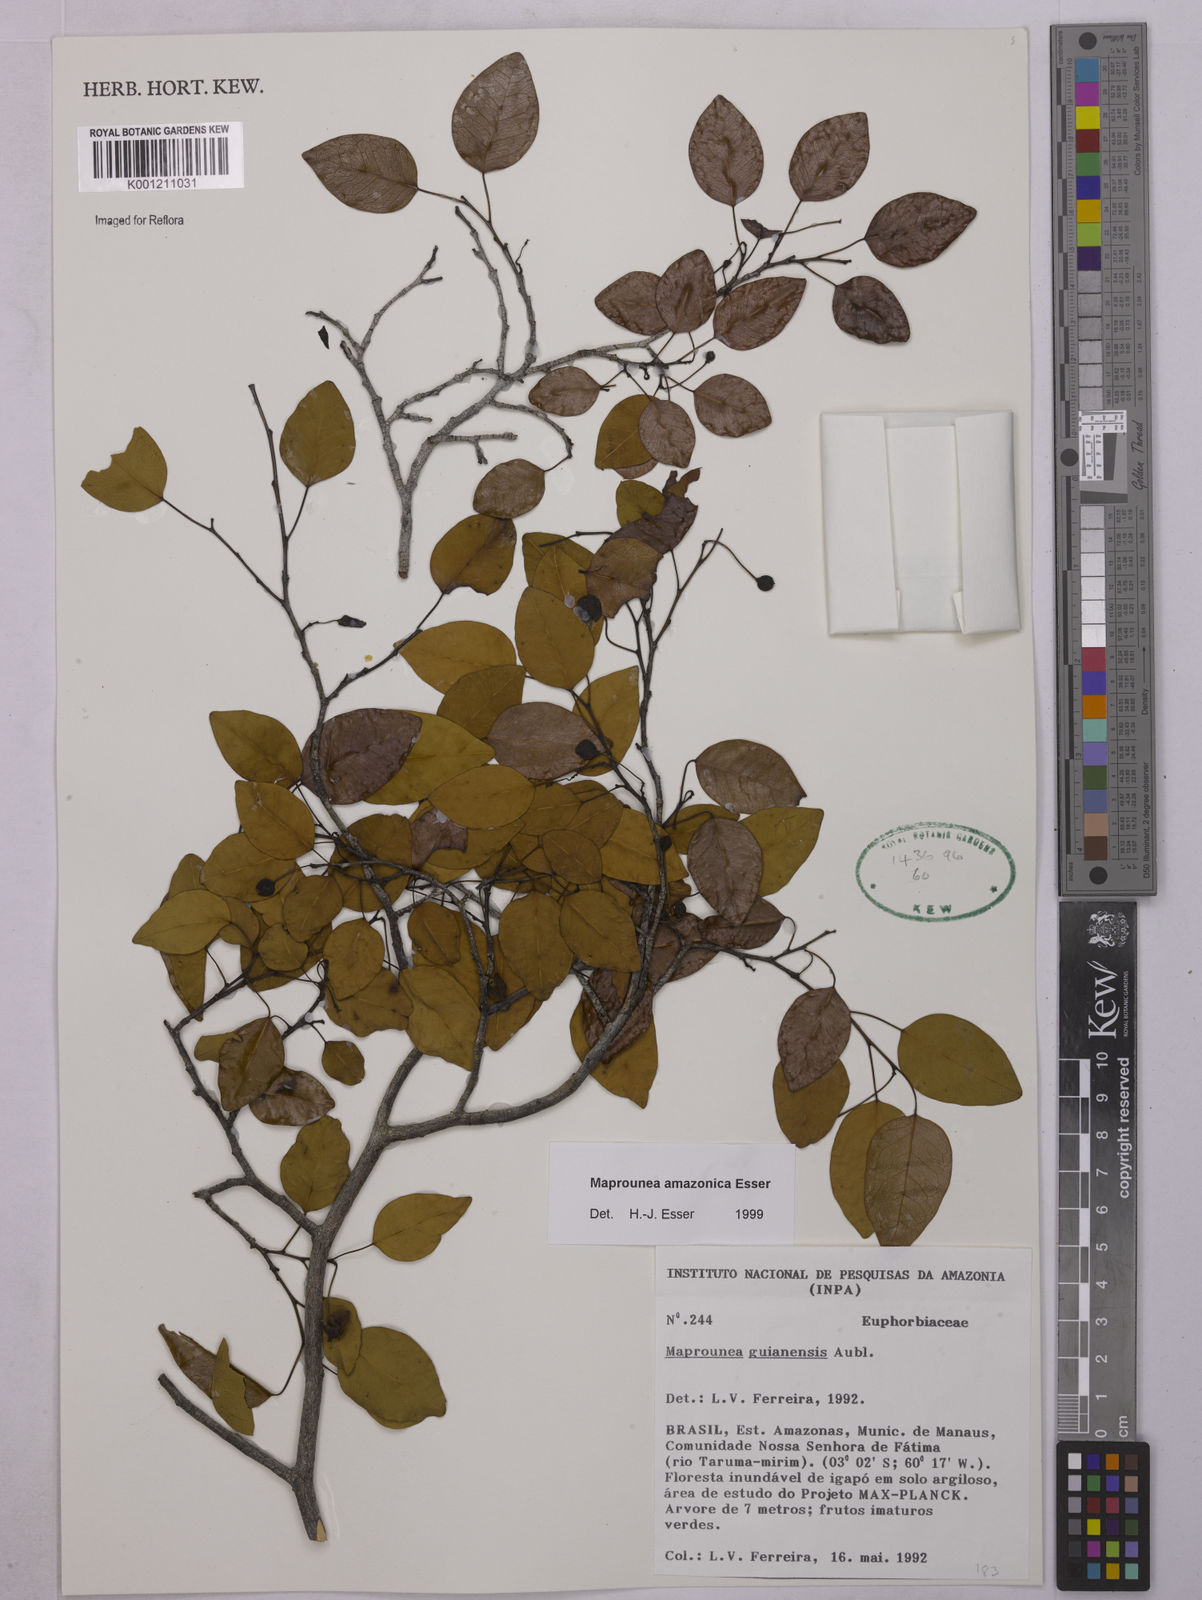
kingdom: Plantae
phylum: Tracheophyta
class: Magnoliopsida
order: Malpighiales
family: Euphorbiaceae
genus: Maprounea
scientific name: Maprounea amazonica
